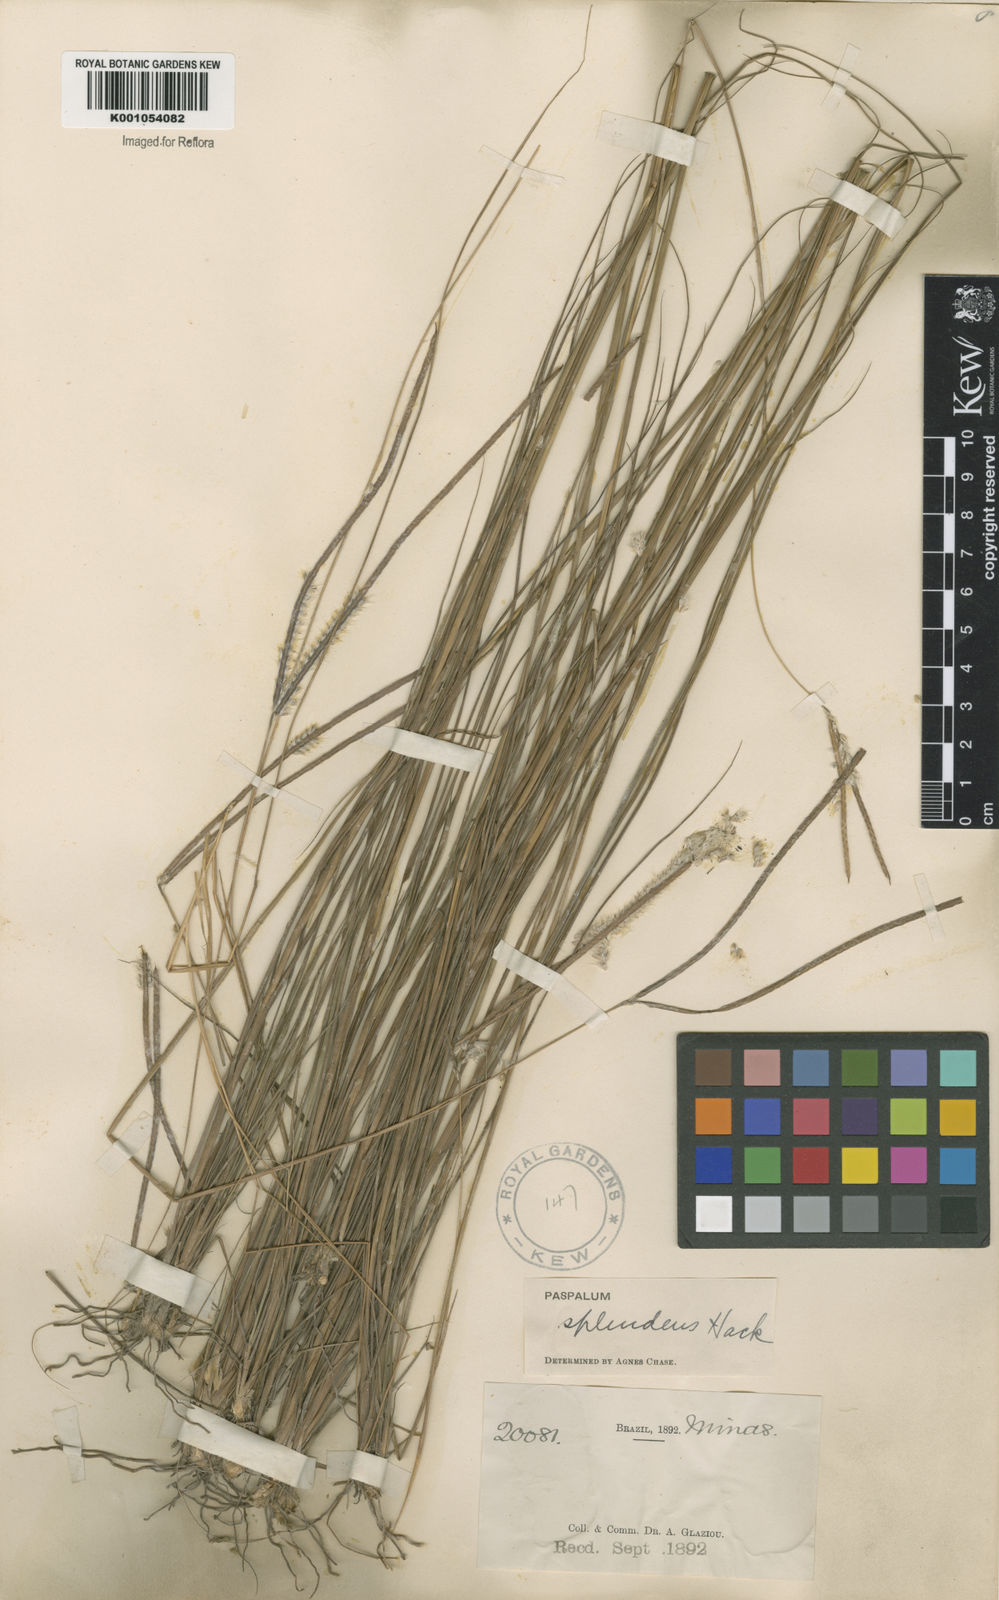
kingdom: Plantae
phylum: Tracheophyta
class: Liliopsida
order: Poales
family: Poaceae
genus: Paspalum
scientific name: Paspalum eucomum
